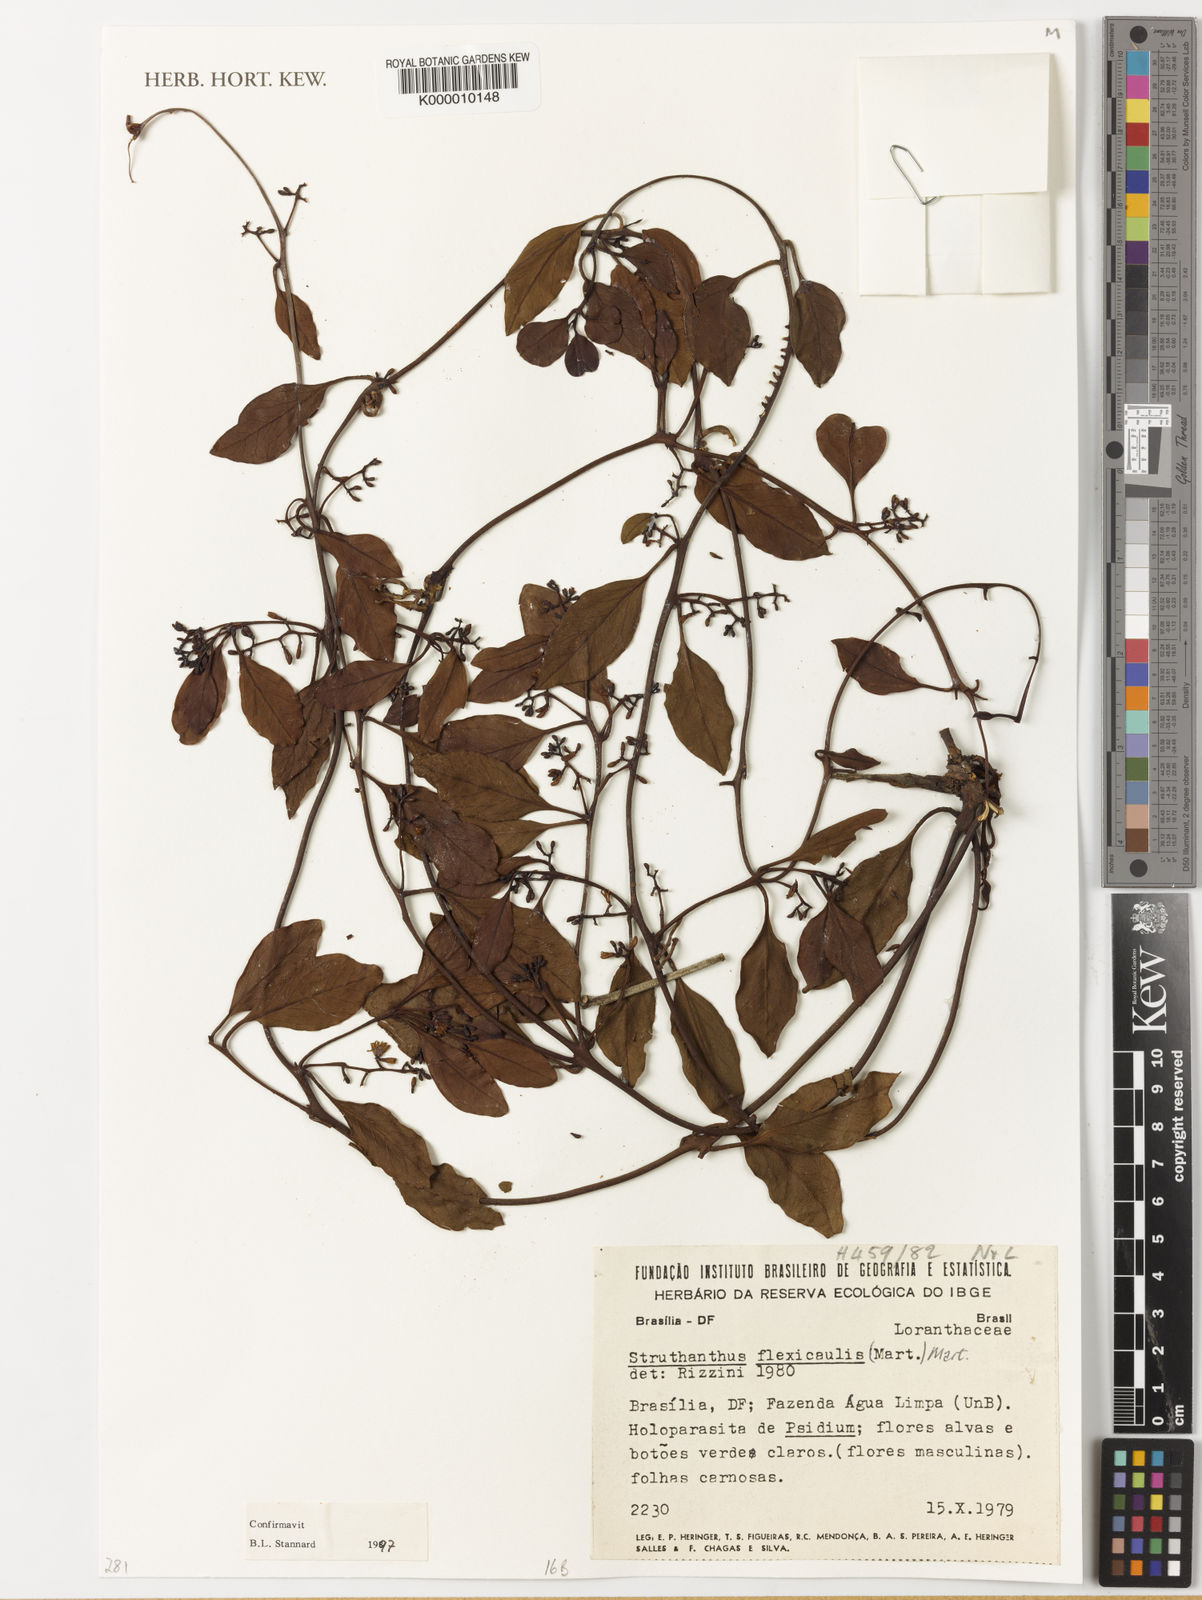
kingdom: Plantae
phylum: Tracheophyta
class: Magnoliopsida
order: Santalales
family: Loranthaceae
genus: Struthanthus
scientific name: Struthanthus flexicaulis
